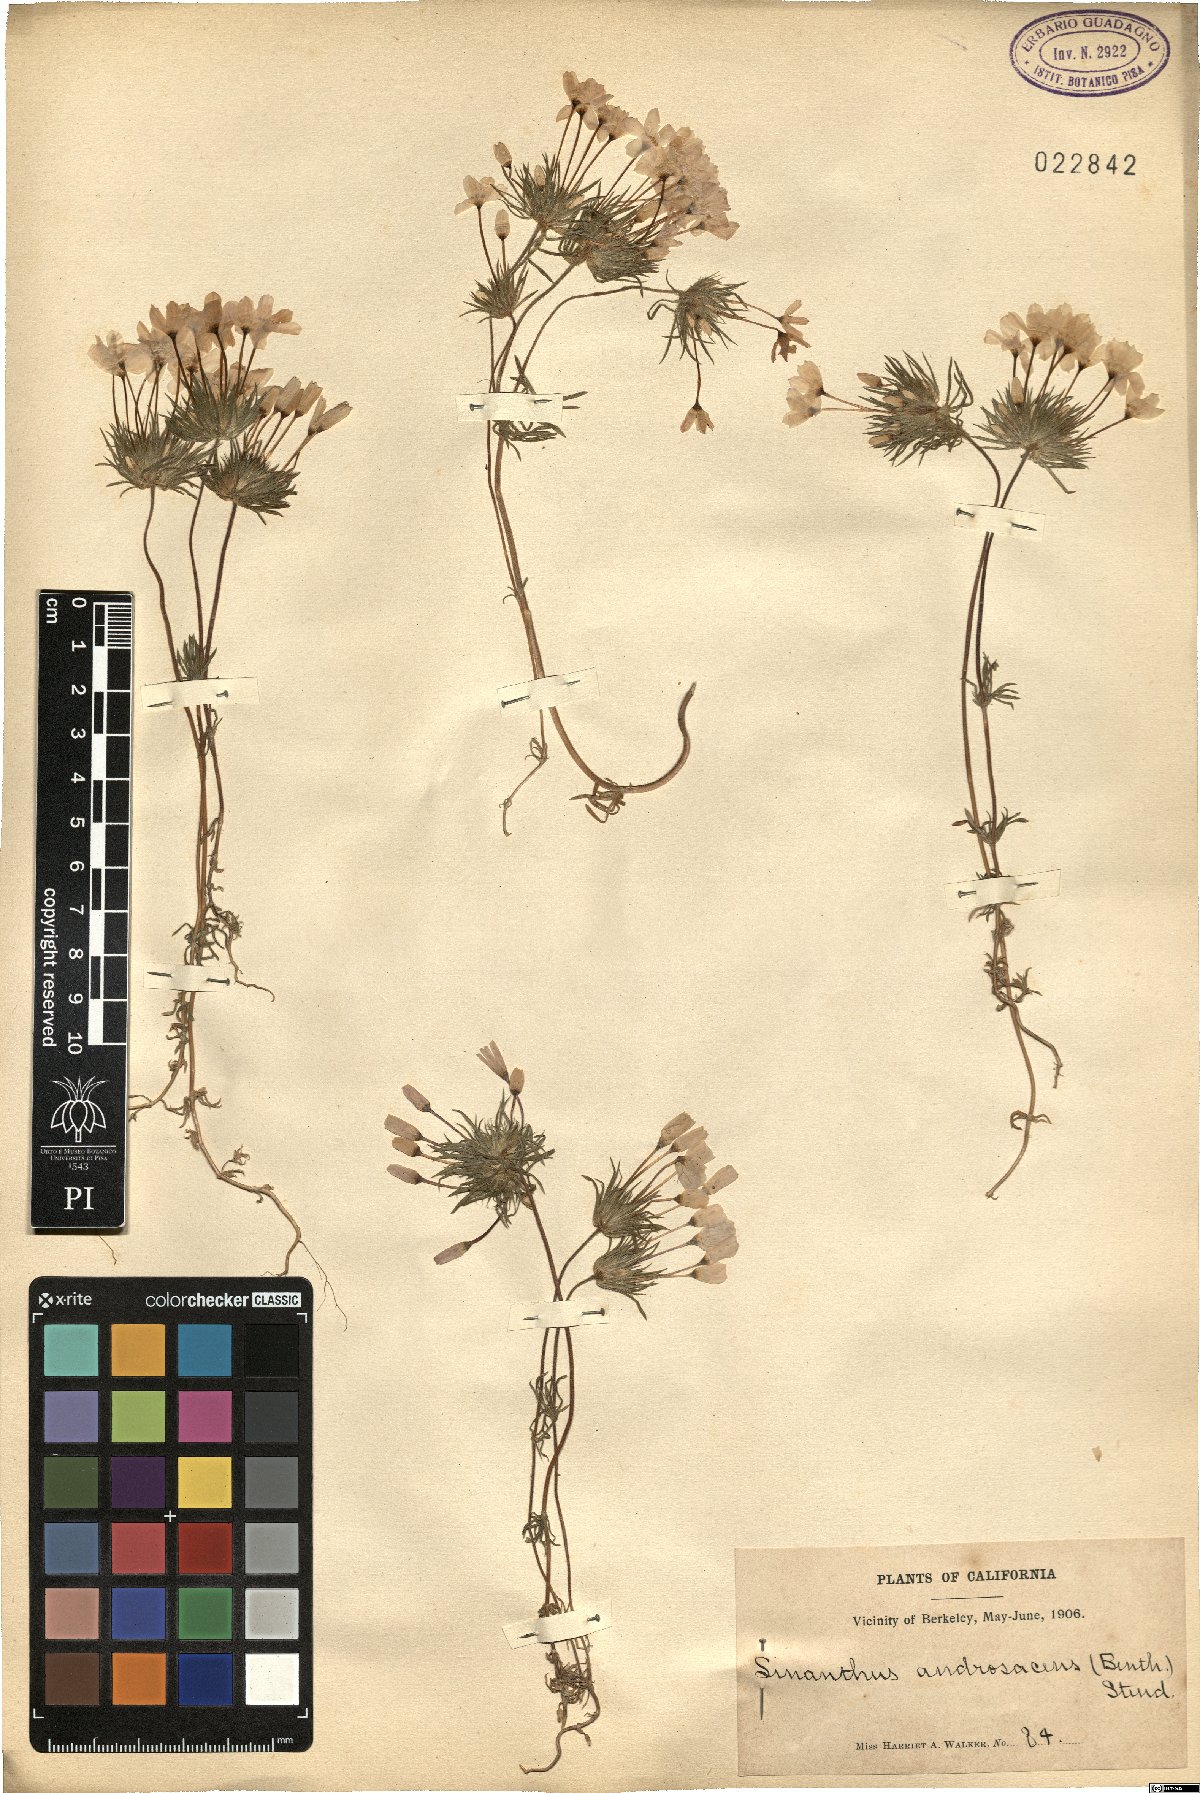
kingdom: Plantae
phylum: Tracheophyta
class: Magnoliopsida
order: Ericales
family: Polemoniaceae
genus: Leptosiphon
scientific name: Leptosiphon androsaceus
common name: False babystars
